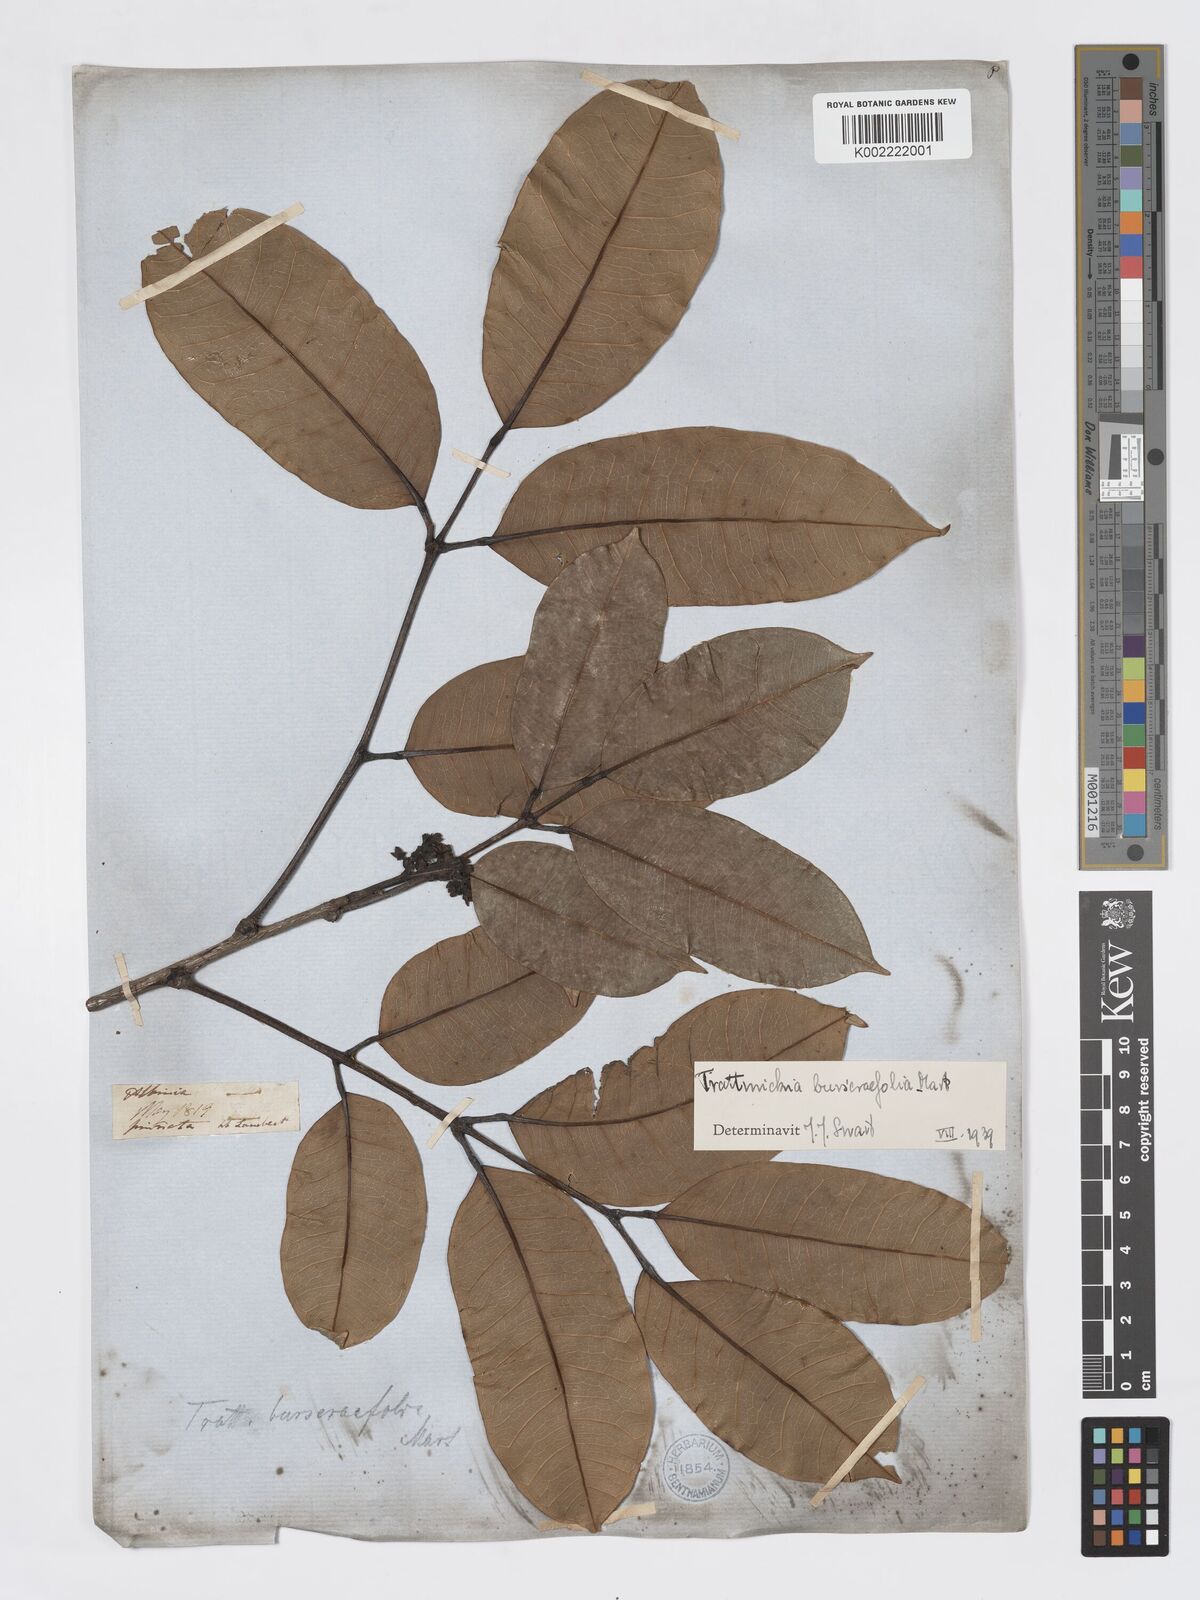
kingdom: Plantae
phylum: Tracheophyta
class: Magnoliopsida
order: Sapindales
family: Burseraceae
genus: Trattinnickia
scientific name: Trattinnickia burserifolia
